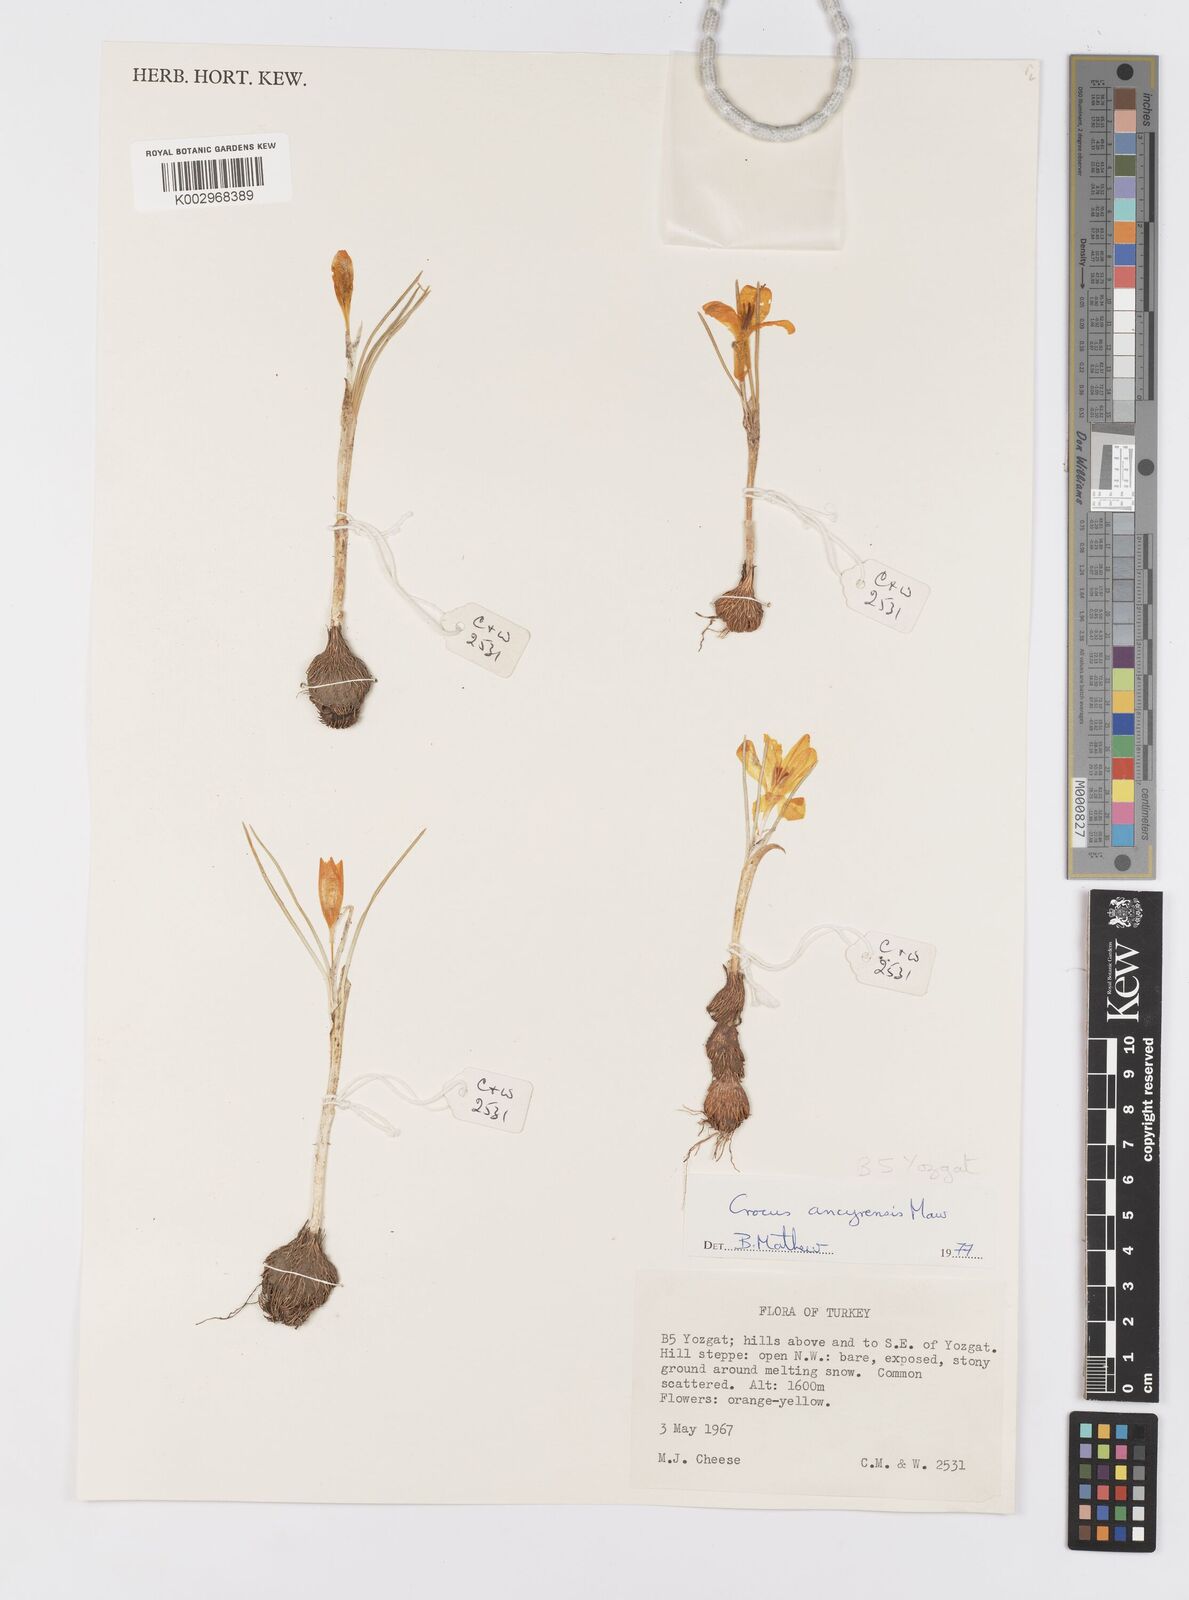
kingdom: Plantae
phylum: Tracheophyta
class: Liliopsida
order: Asparagales
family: Iridaceae
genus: Crocus
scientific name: Crocus ancyrensis
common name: Ankara crocus
